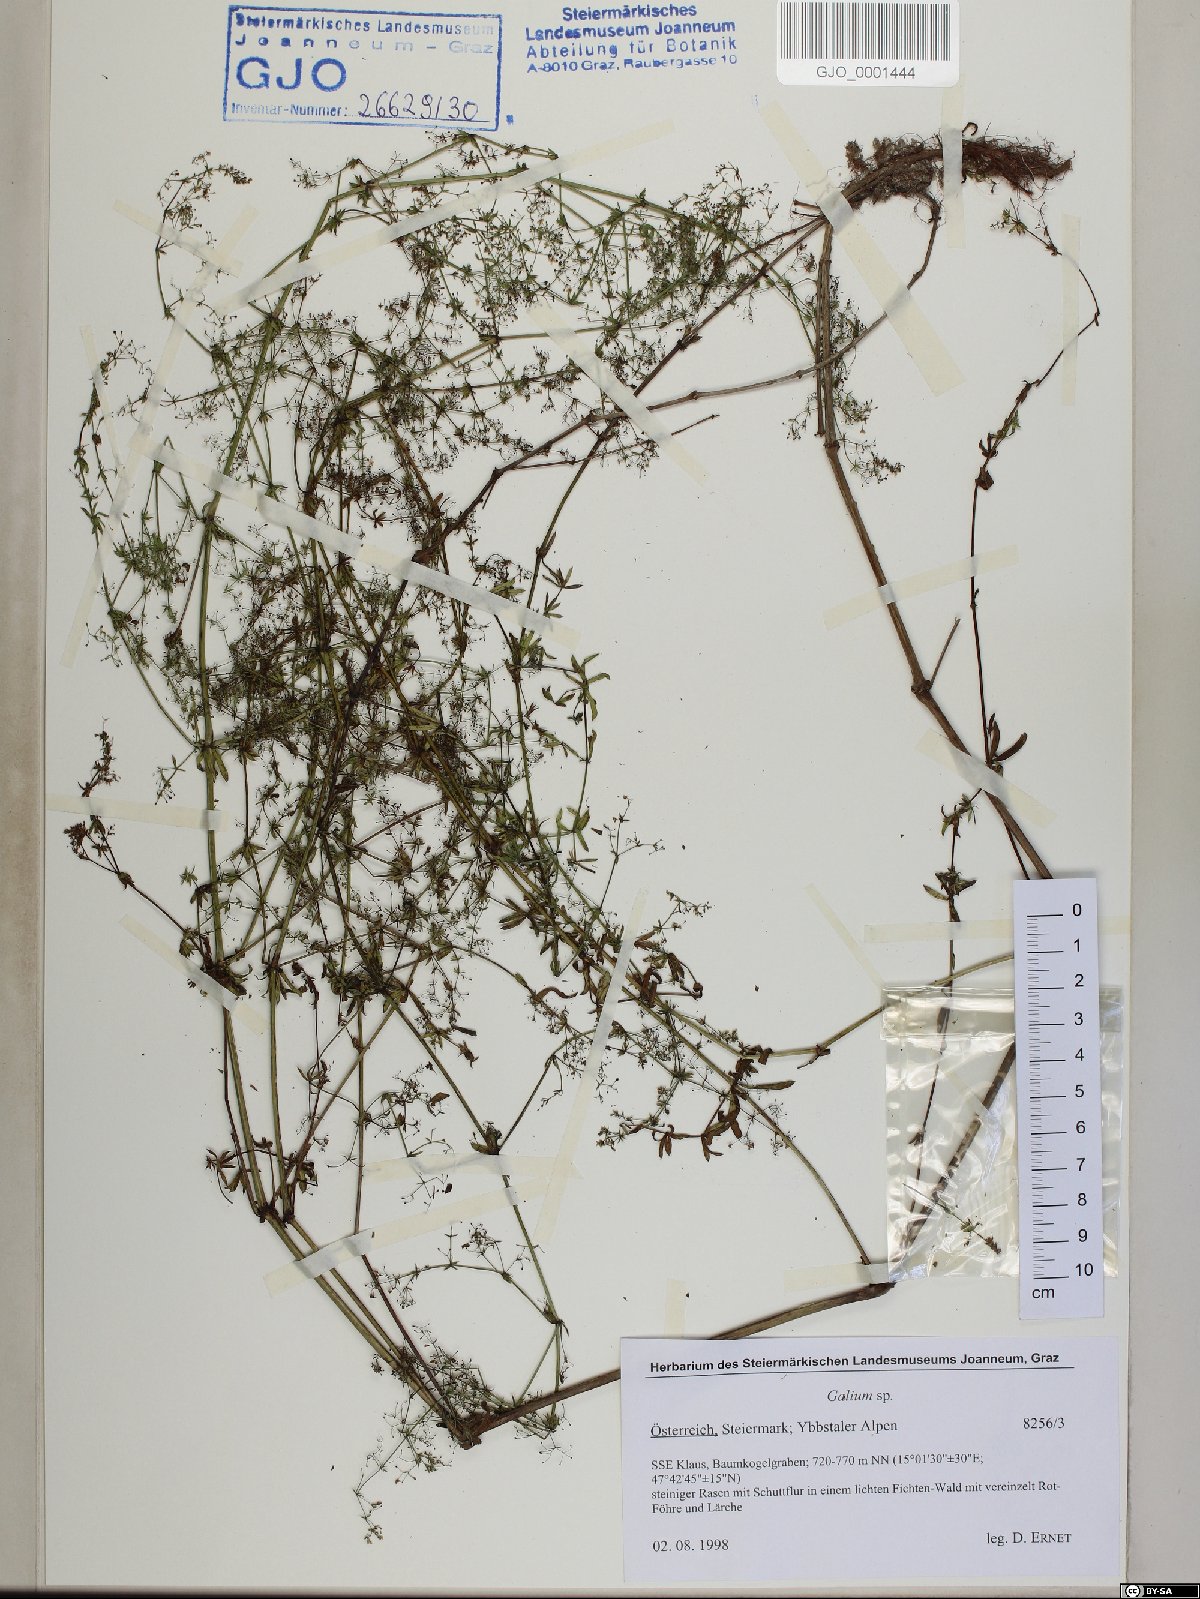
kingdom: Plantae
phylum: Tracheophyta
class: Magnoliopsida
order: Gentianales
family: Rubiaceae
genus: Galium
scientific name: Galium
